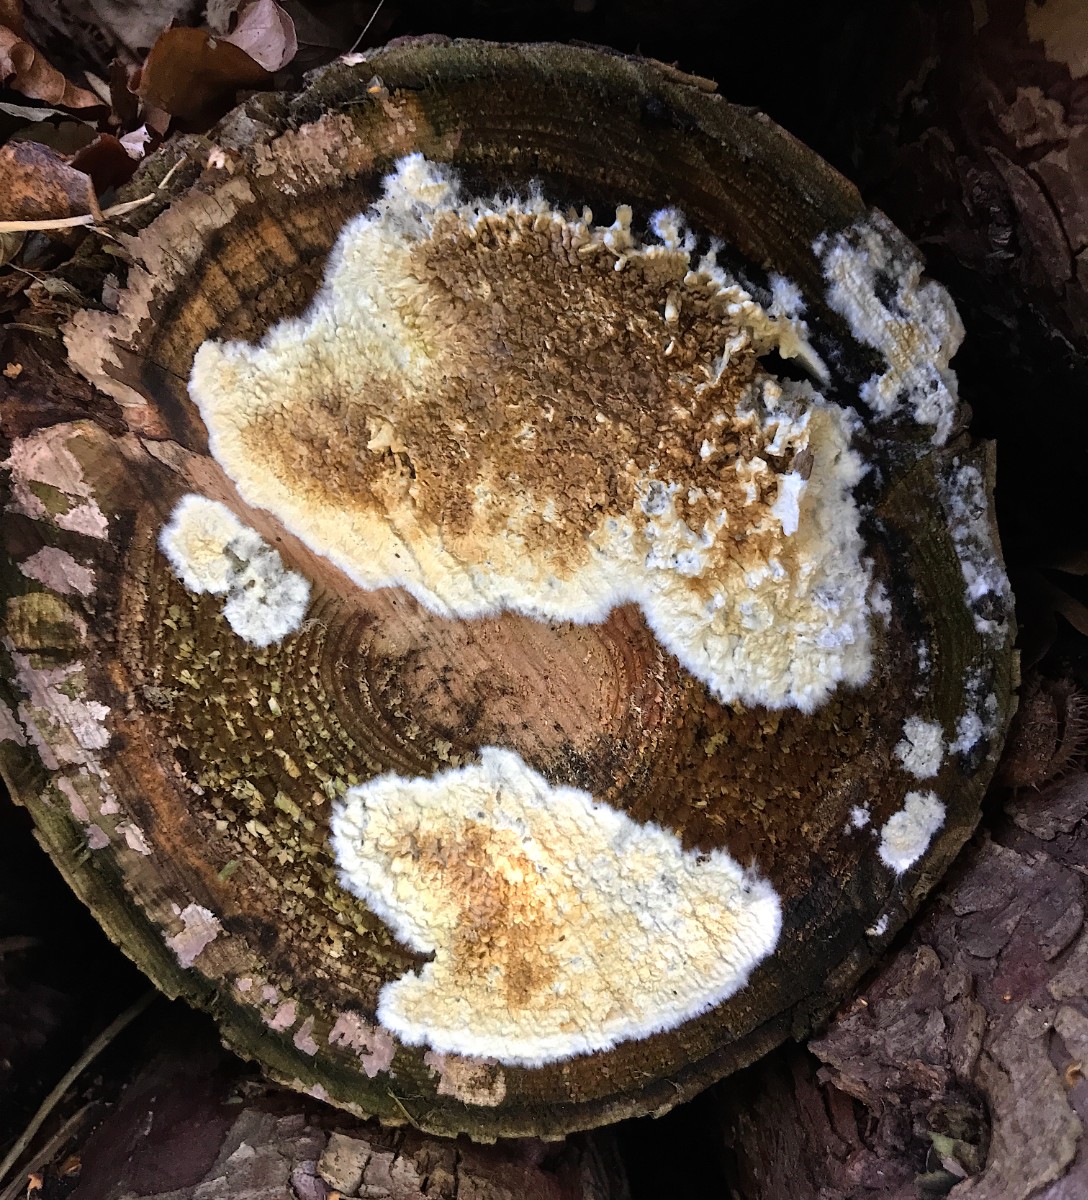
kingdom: Fungi
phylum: Basidiomycota
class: Agaricomycetes
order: Boletales
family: Coniophoraceae
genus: Coniophora
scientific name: Coniophora puteana
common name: gul tømmersvamp
